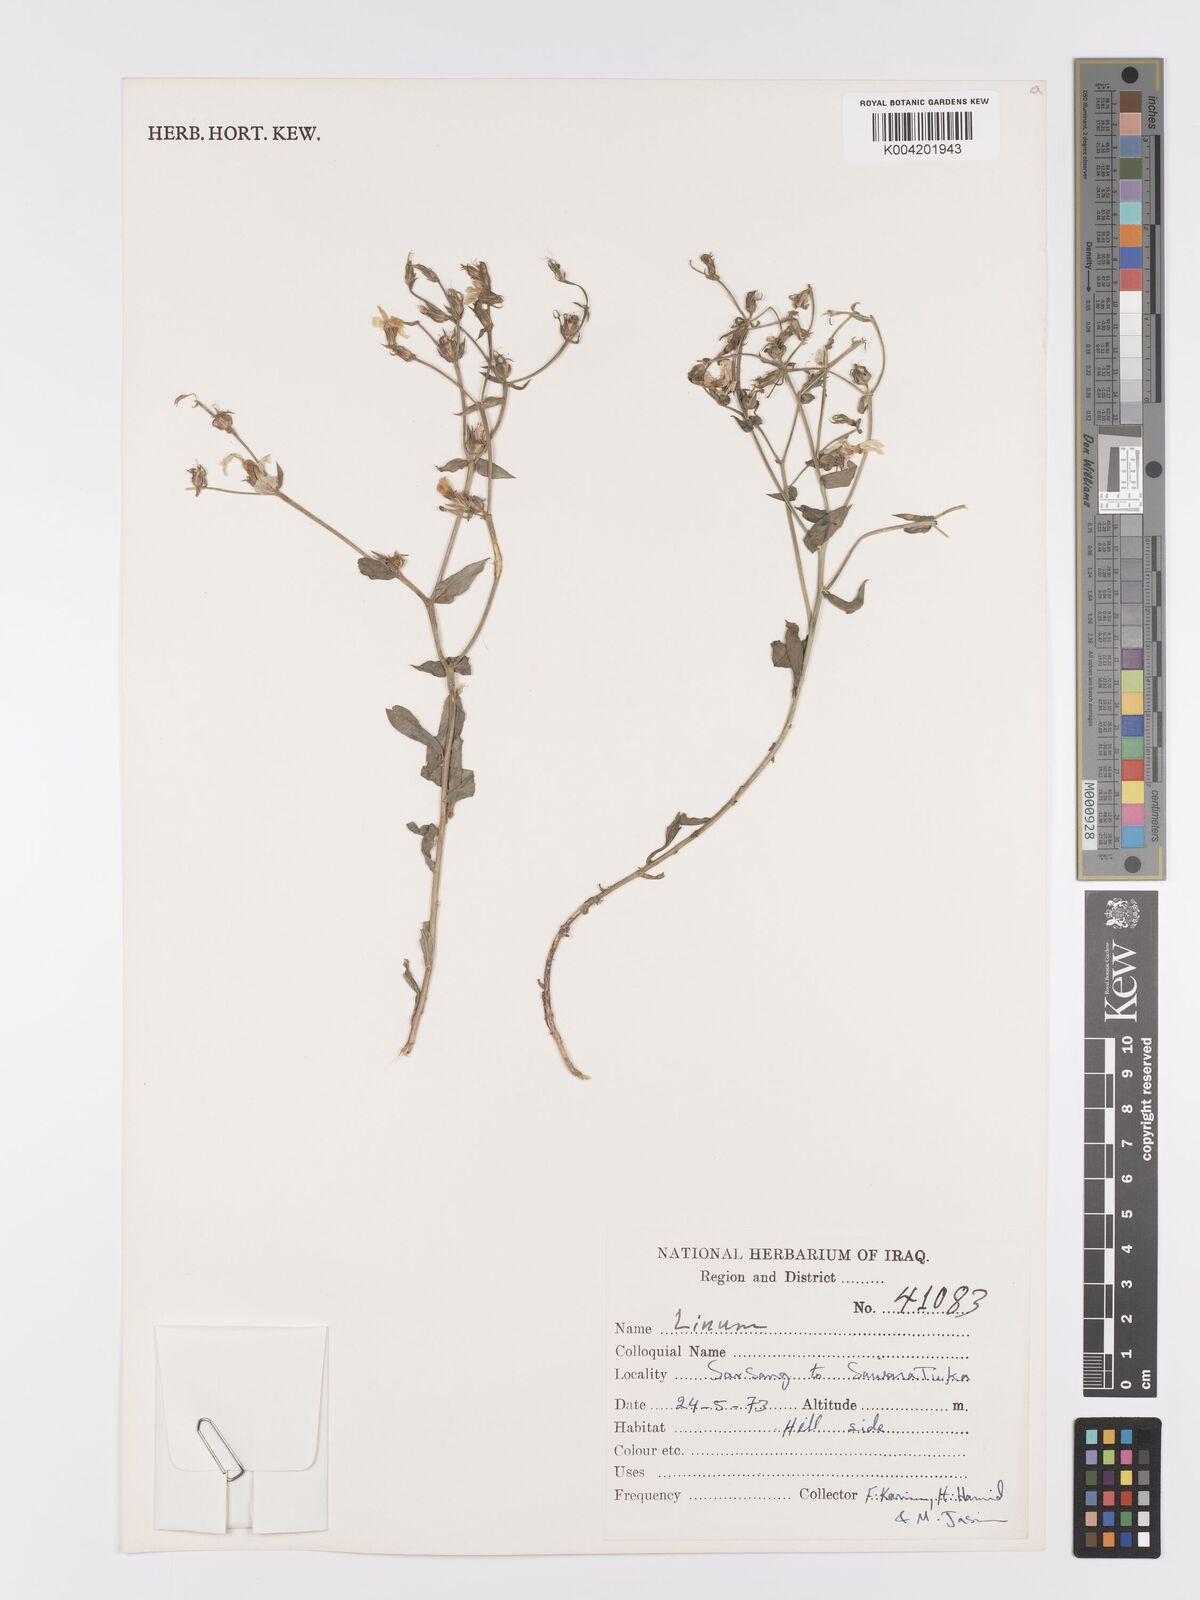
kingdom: Plantae
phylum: Tracheophyta
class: Magnoliopsida
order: Malpighiales
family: Linaceae
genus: Linum
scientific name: Linum
